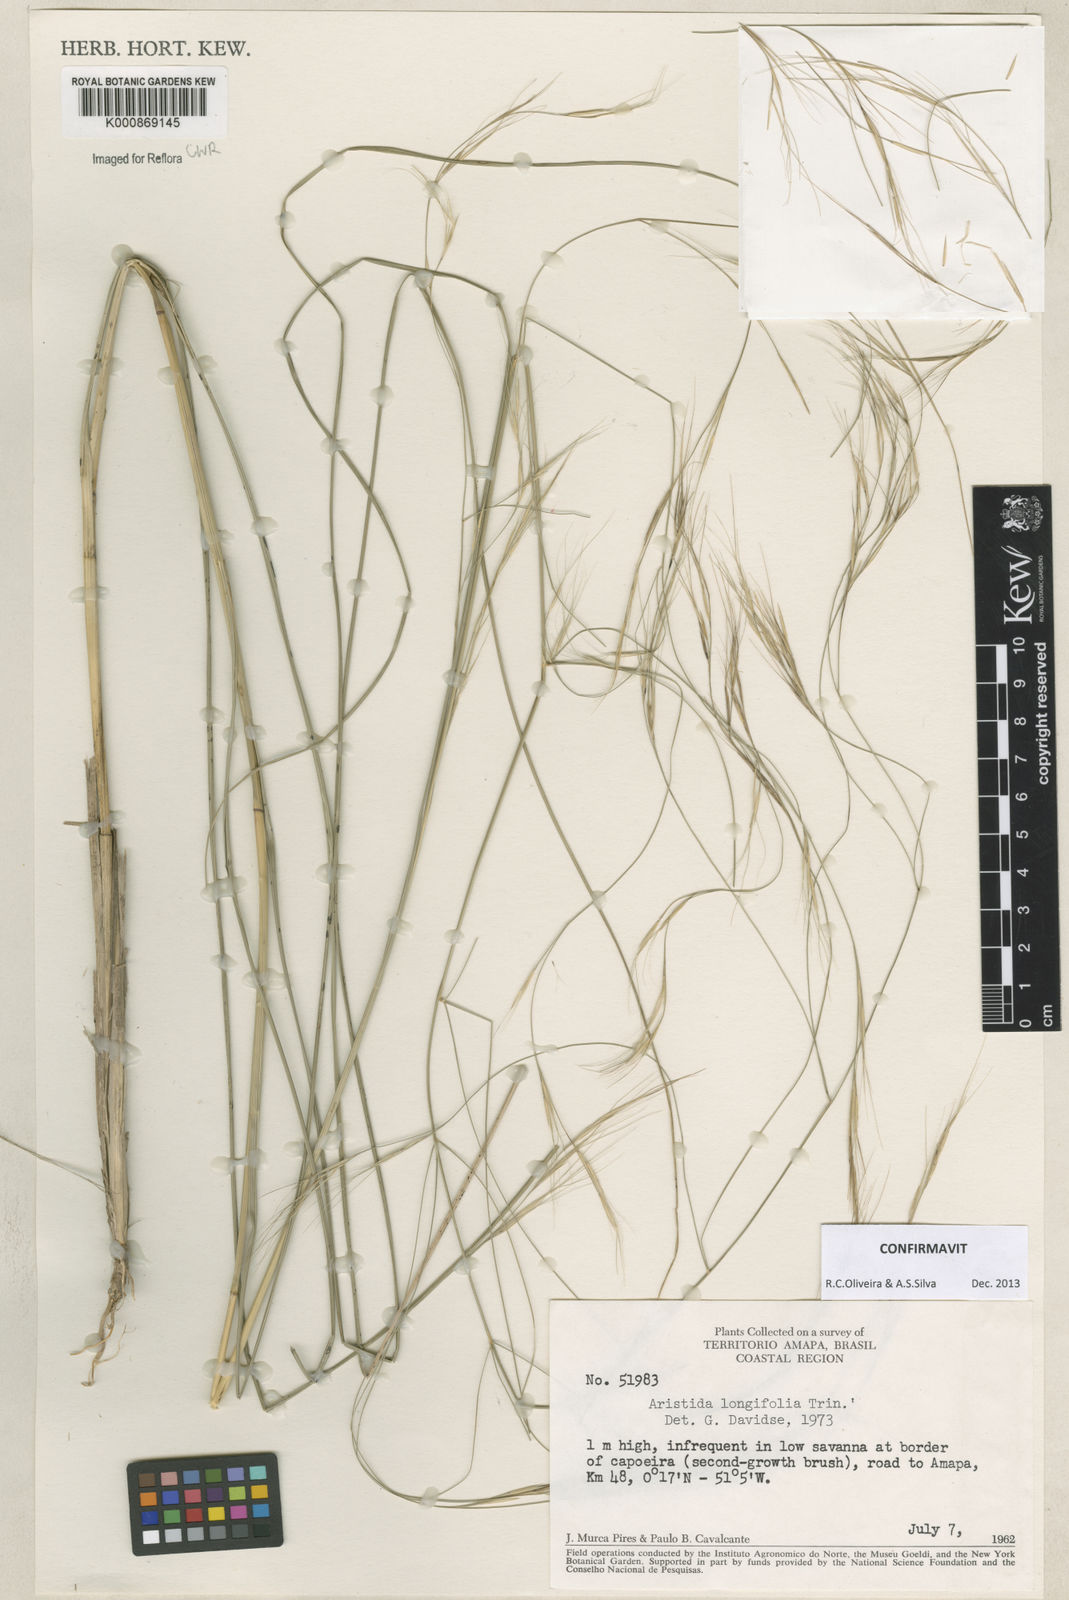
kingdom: Plantae
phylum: Tracheophyta
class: Liliopsida
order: Poales
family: Poaceae
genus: Aristida
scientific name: Aristida longifolia
